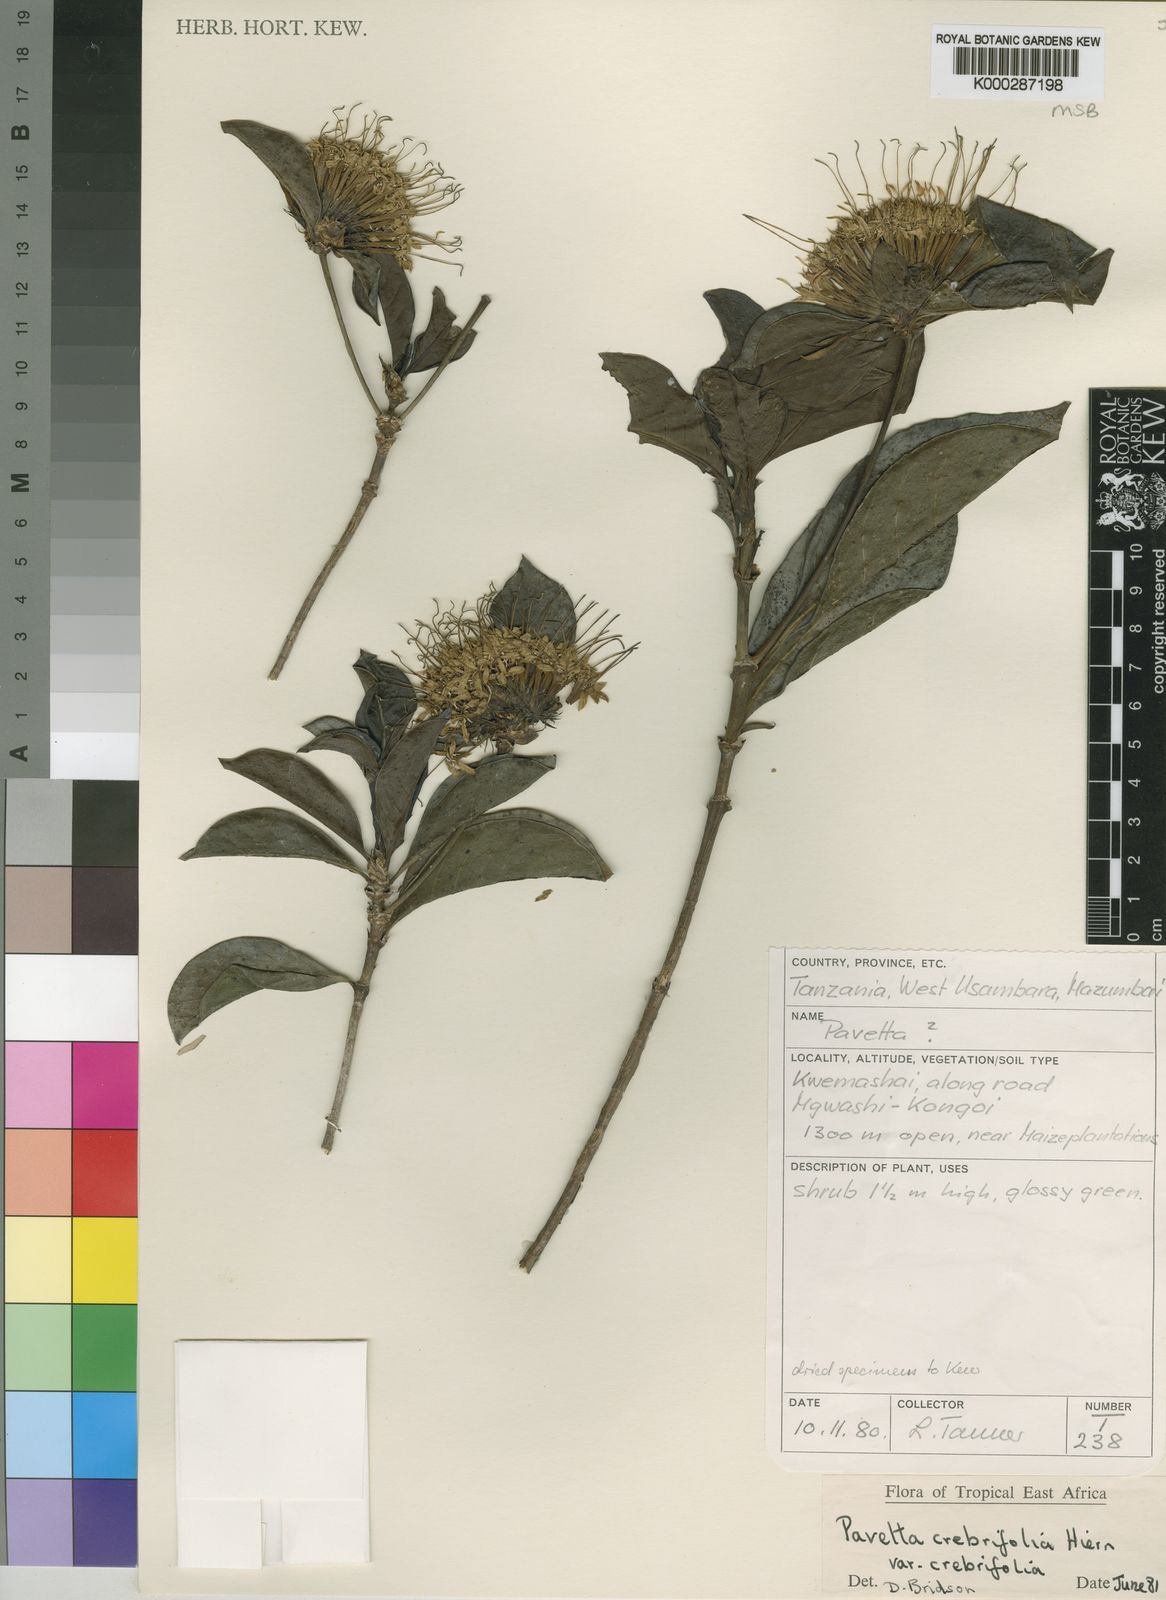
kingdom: Plantae
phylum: Tracheophyta
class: Magnoliopsida
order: Gentianales
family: Rubiaceae
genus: Pavetta
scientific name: Pavetta crebrifolia
